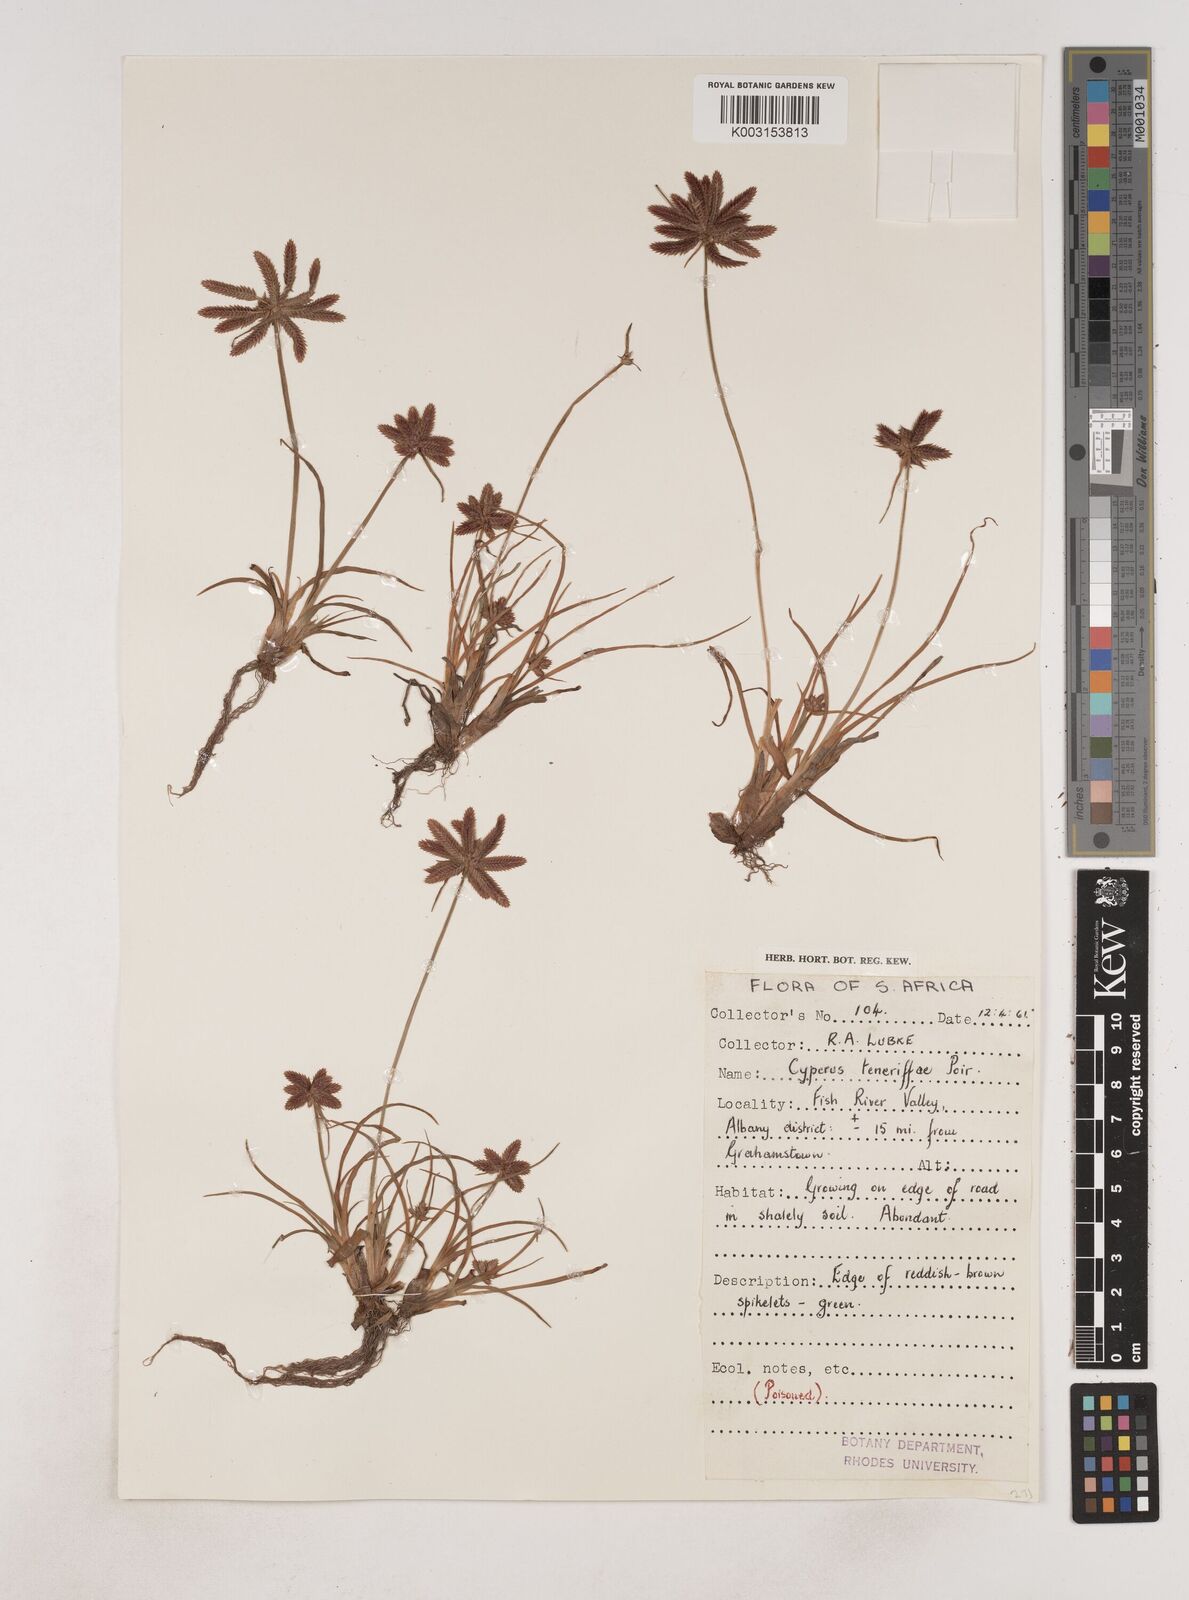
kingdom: Plantae
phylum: Tracheophyta
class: Liliopsida
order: Poales
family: Cyperaceae
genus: Cyperus
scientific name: Cyperus rubicundus
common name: Coco-grass
